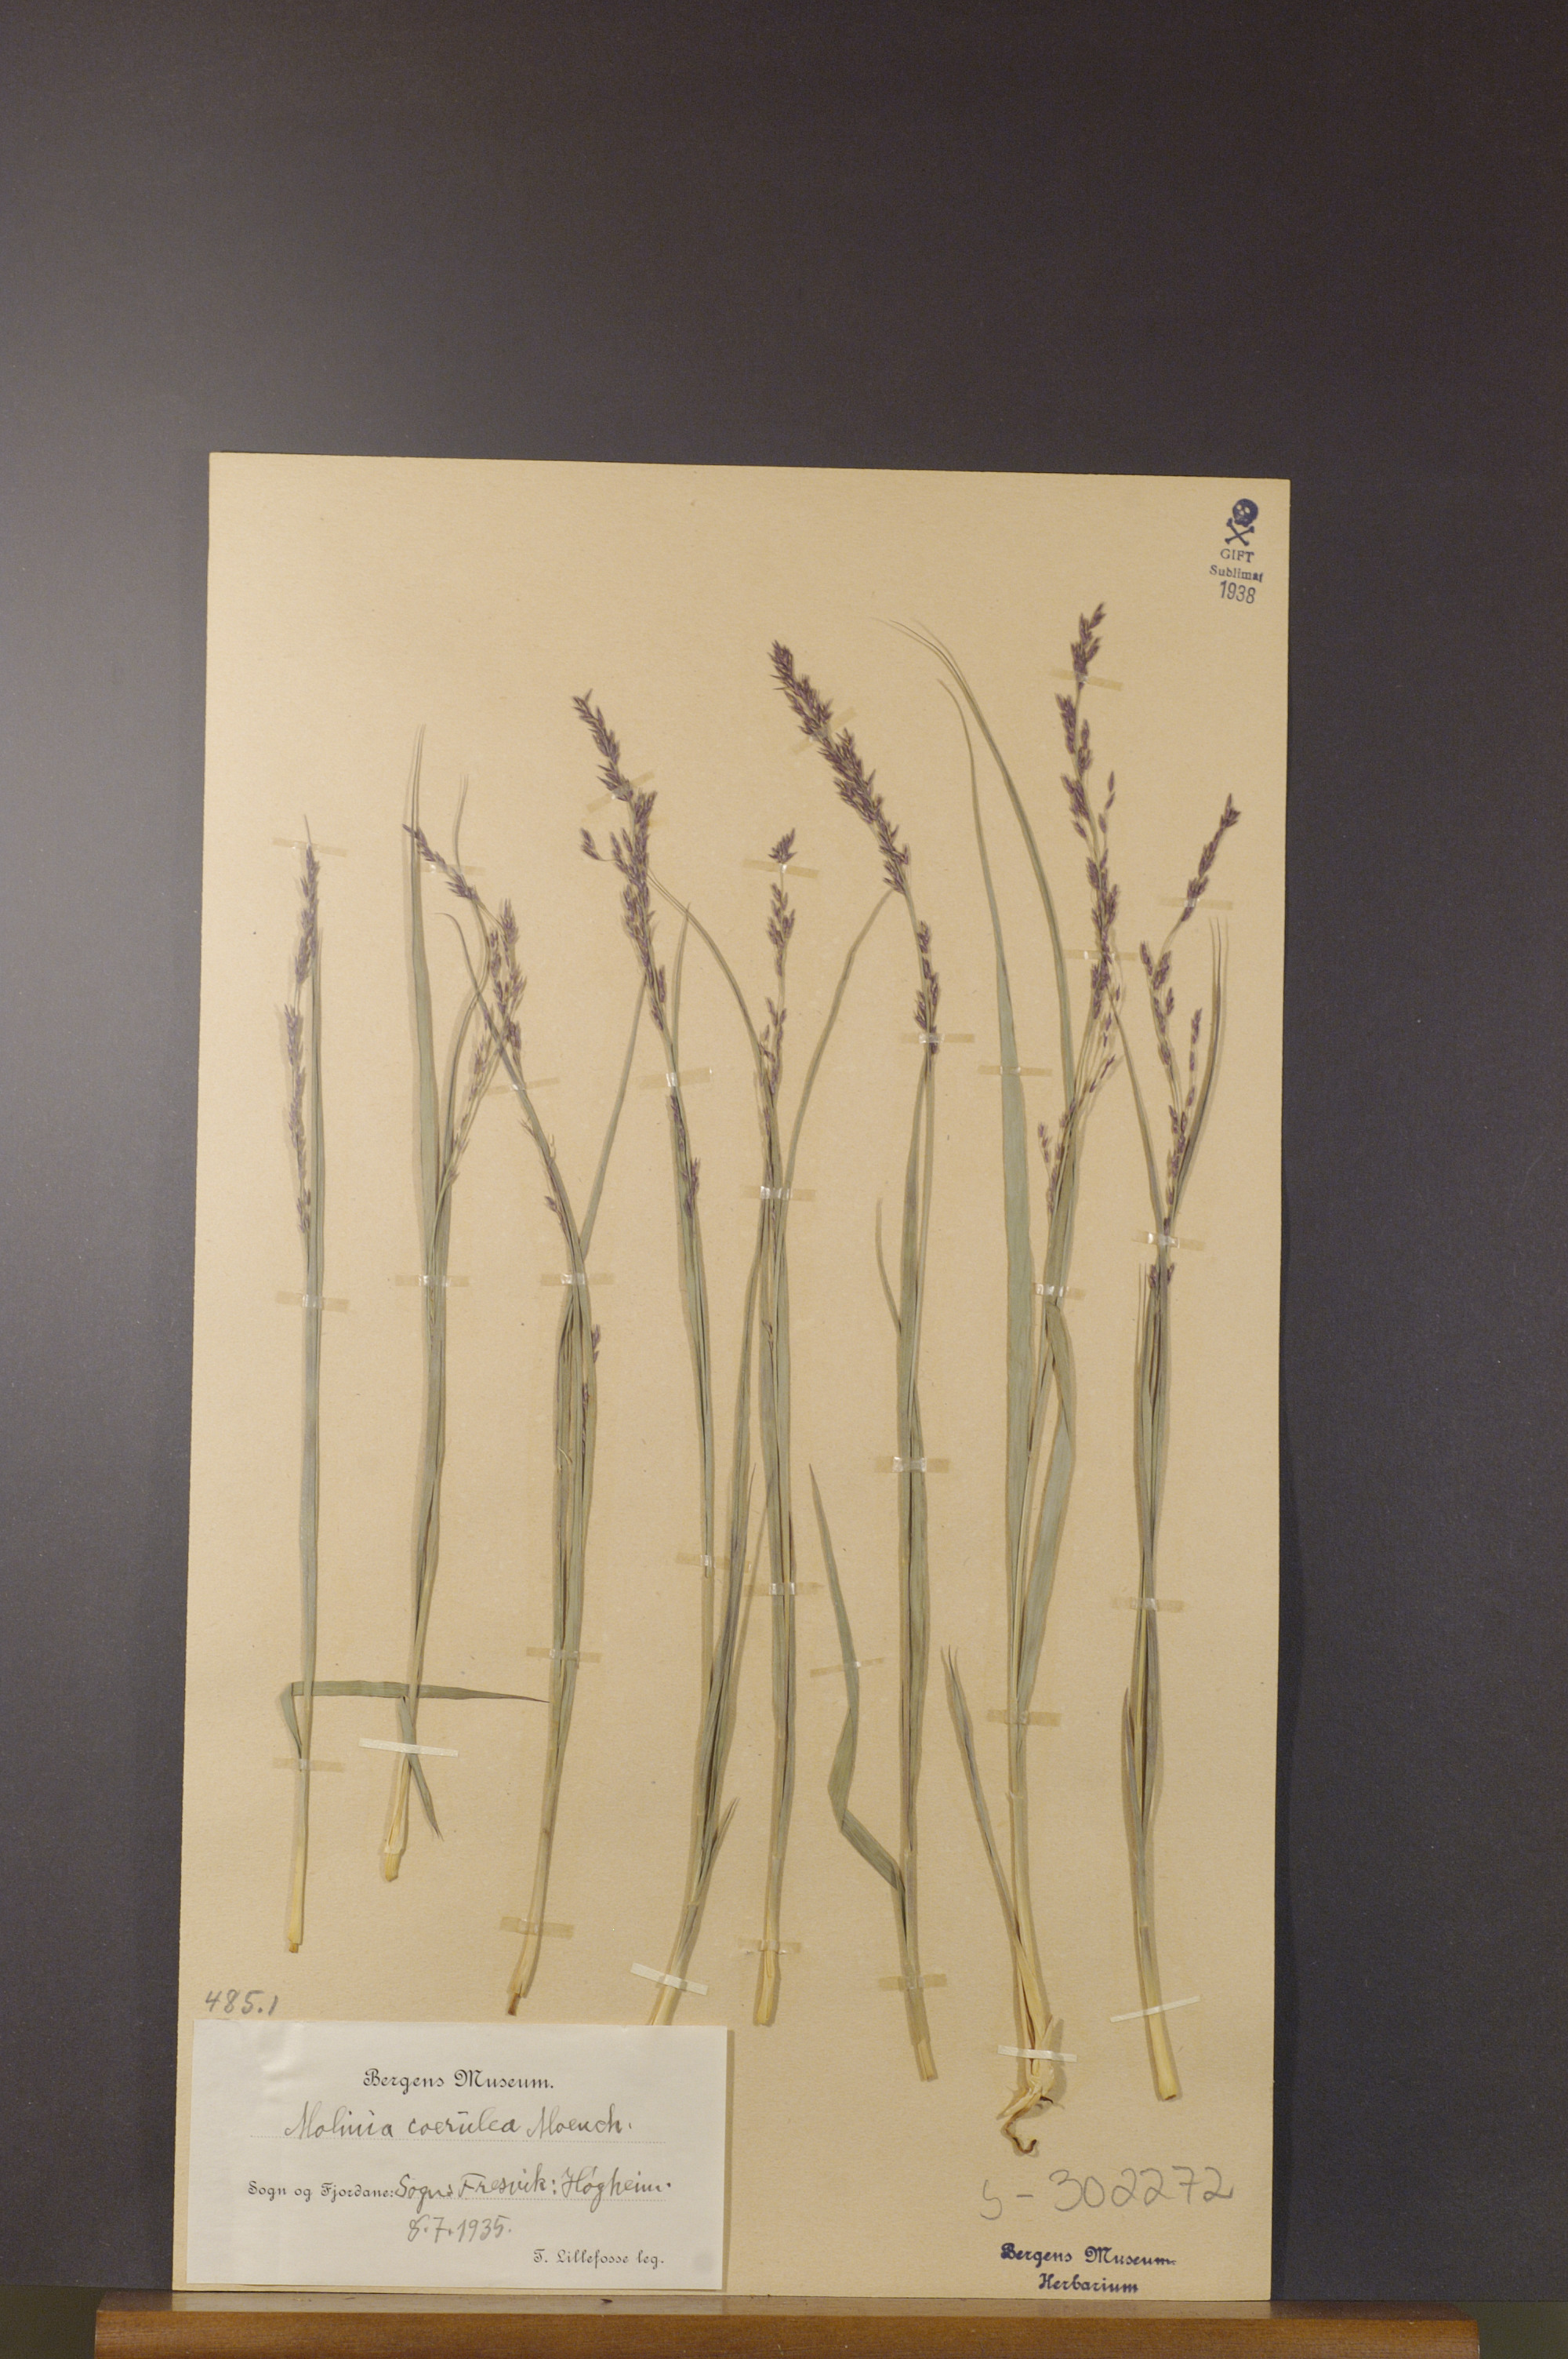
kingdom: Plantae
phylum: Tracheophyta
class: Liliopsida
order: Poales
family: Poaceae
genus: Molinia
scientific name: Molinia caerulea
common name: Purple moor-grass
